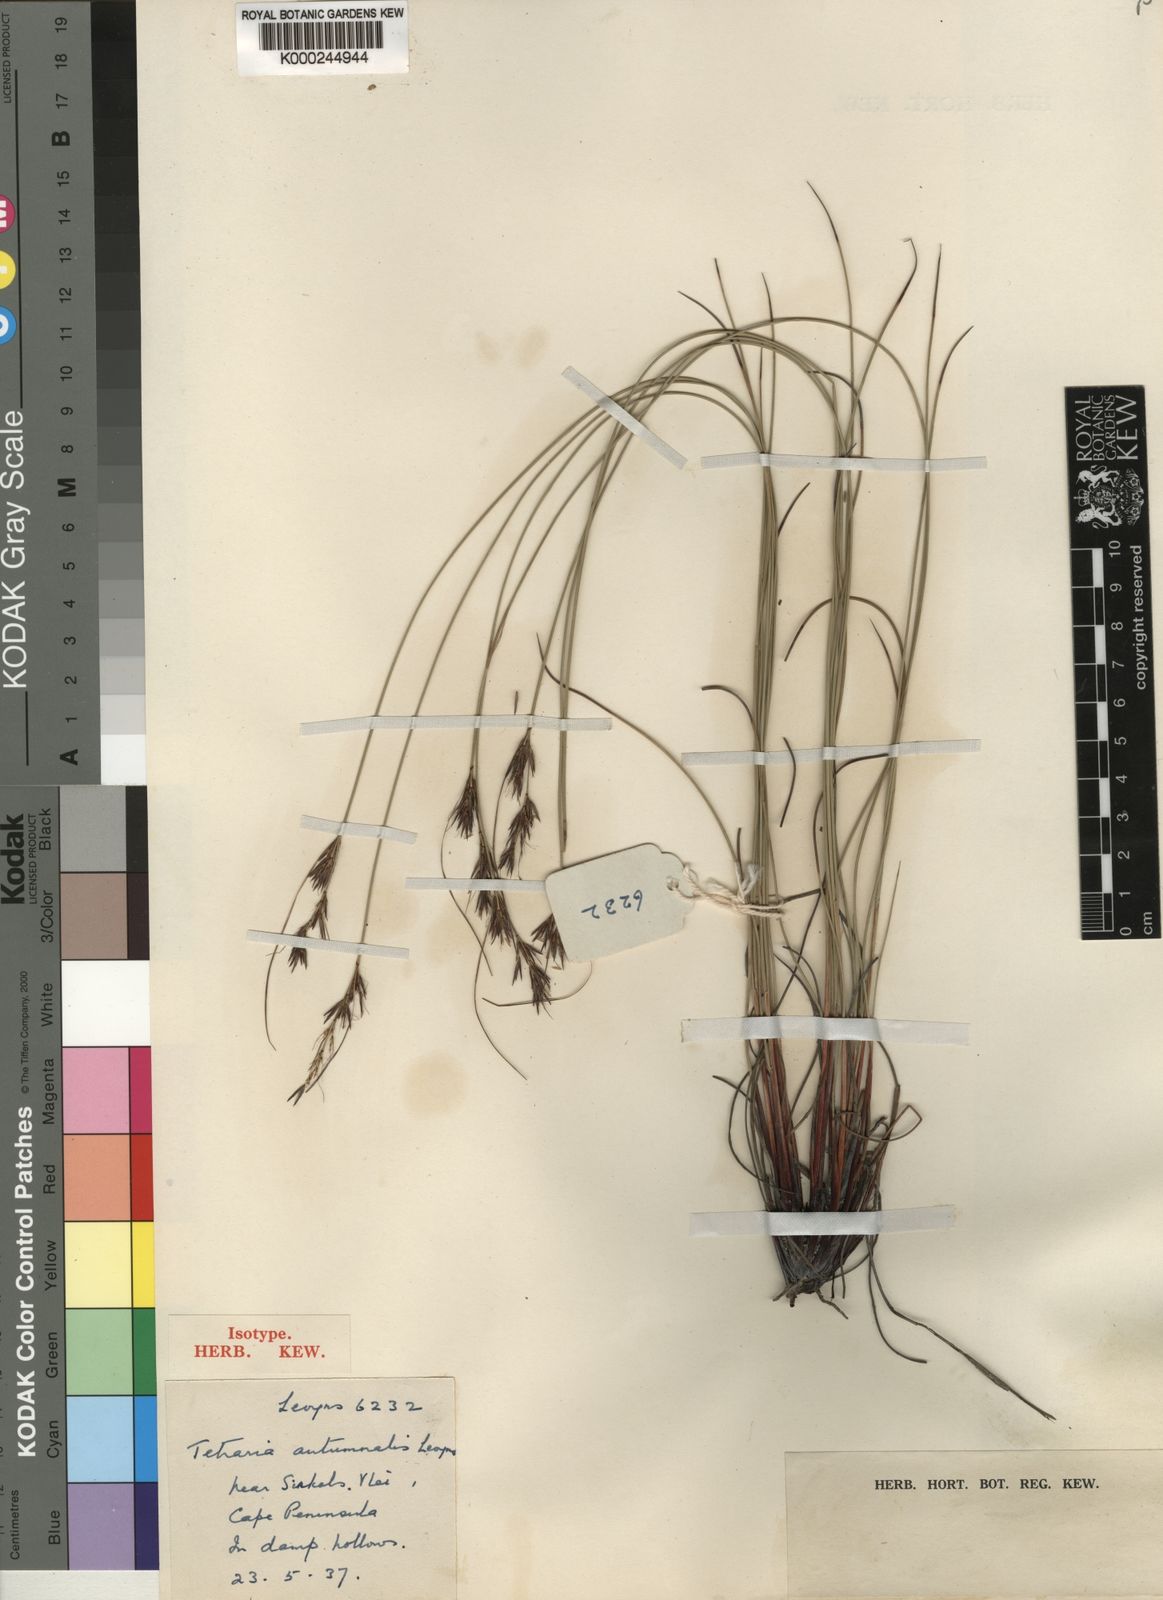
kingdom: Plantae
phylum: Tracheophyta
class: Liliopsida
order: Poales
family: Cyperaceae
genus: Schoenus
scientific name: Schoenus ligulatus
